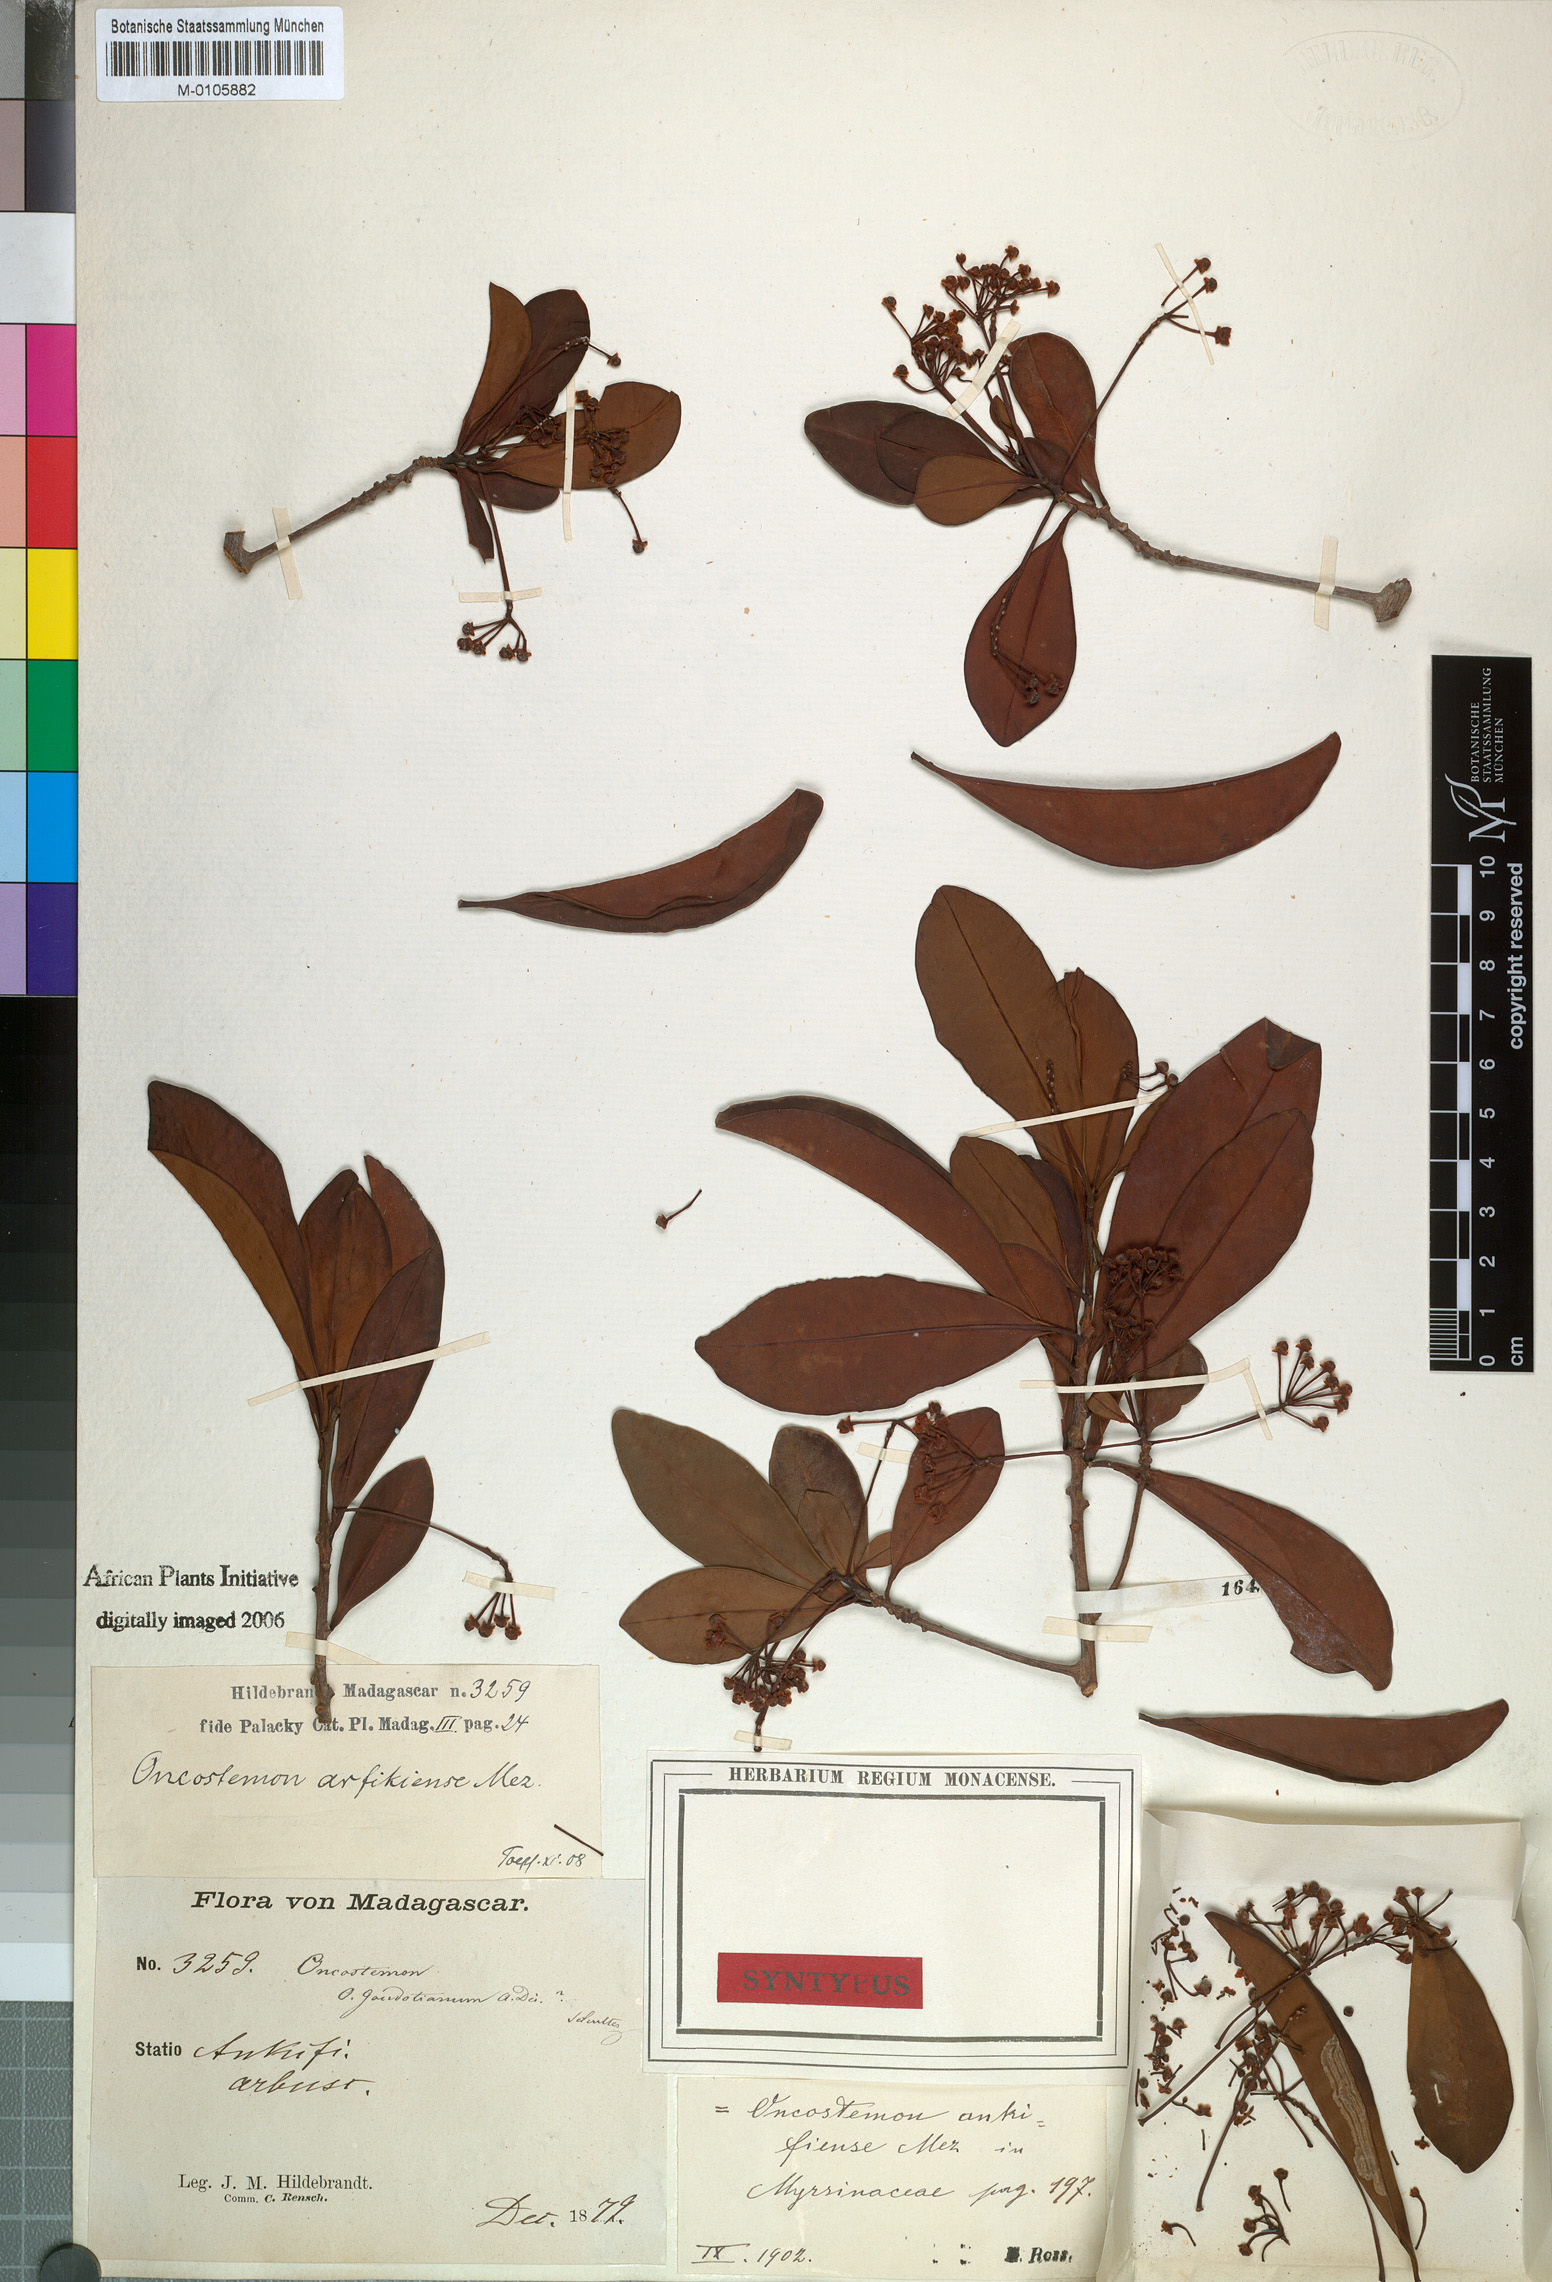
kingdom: Plantae
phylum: Tracheophyta
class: Magnoliopsida
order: Ericales
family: Primulaceae
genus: Oncostemum
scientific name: Oncostemum ankifiense
